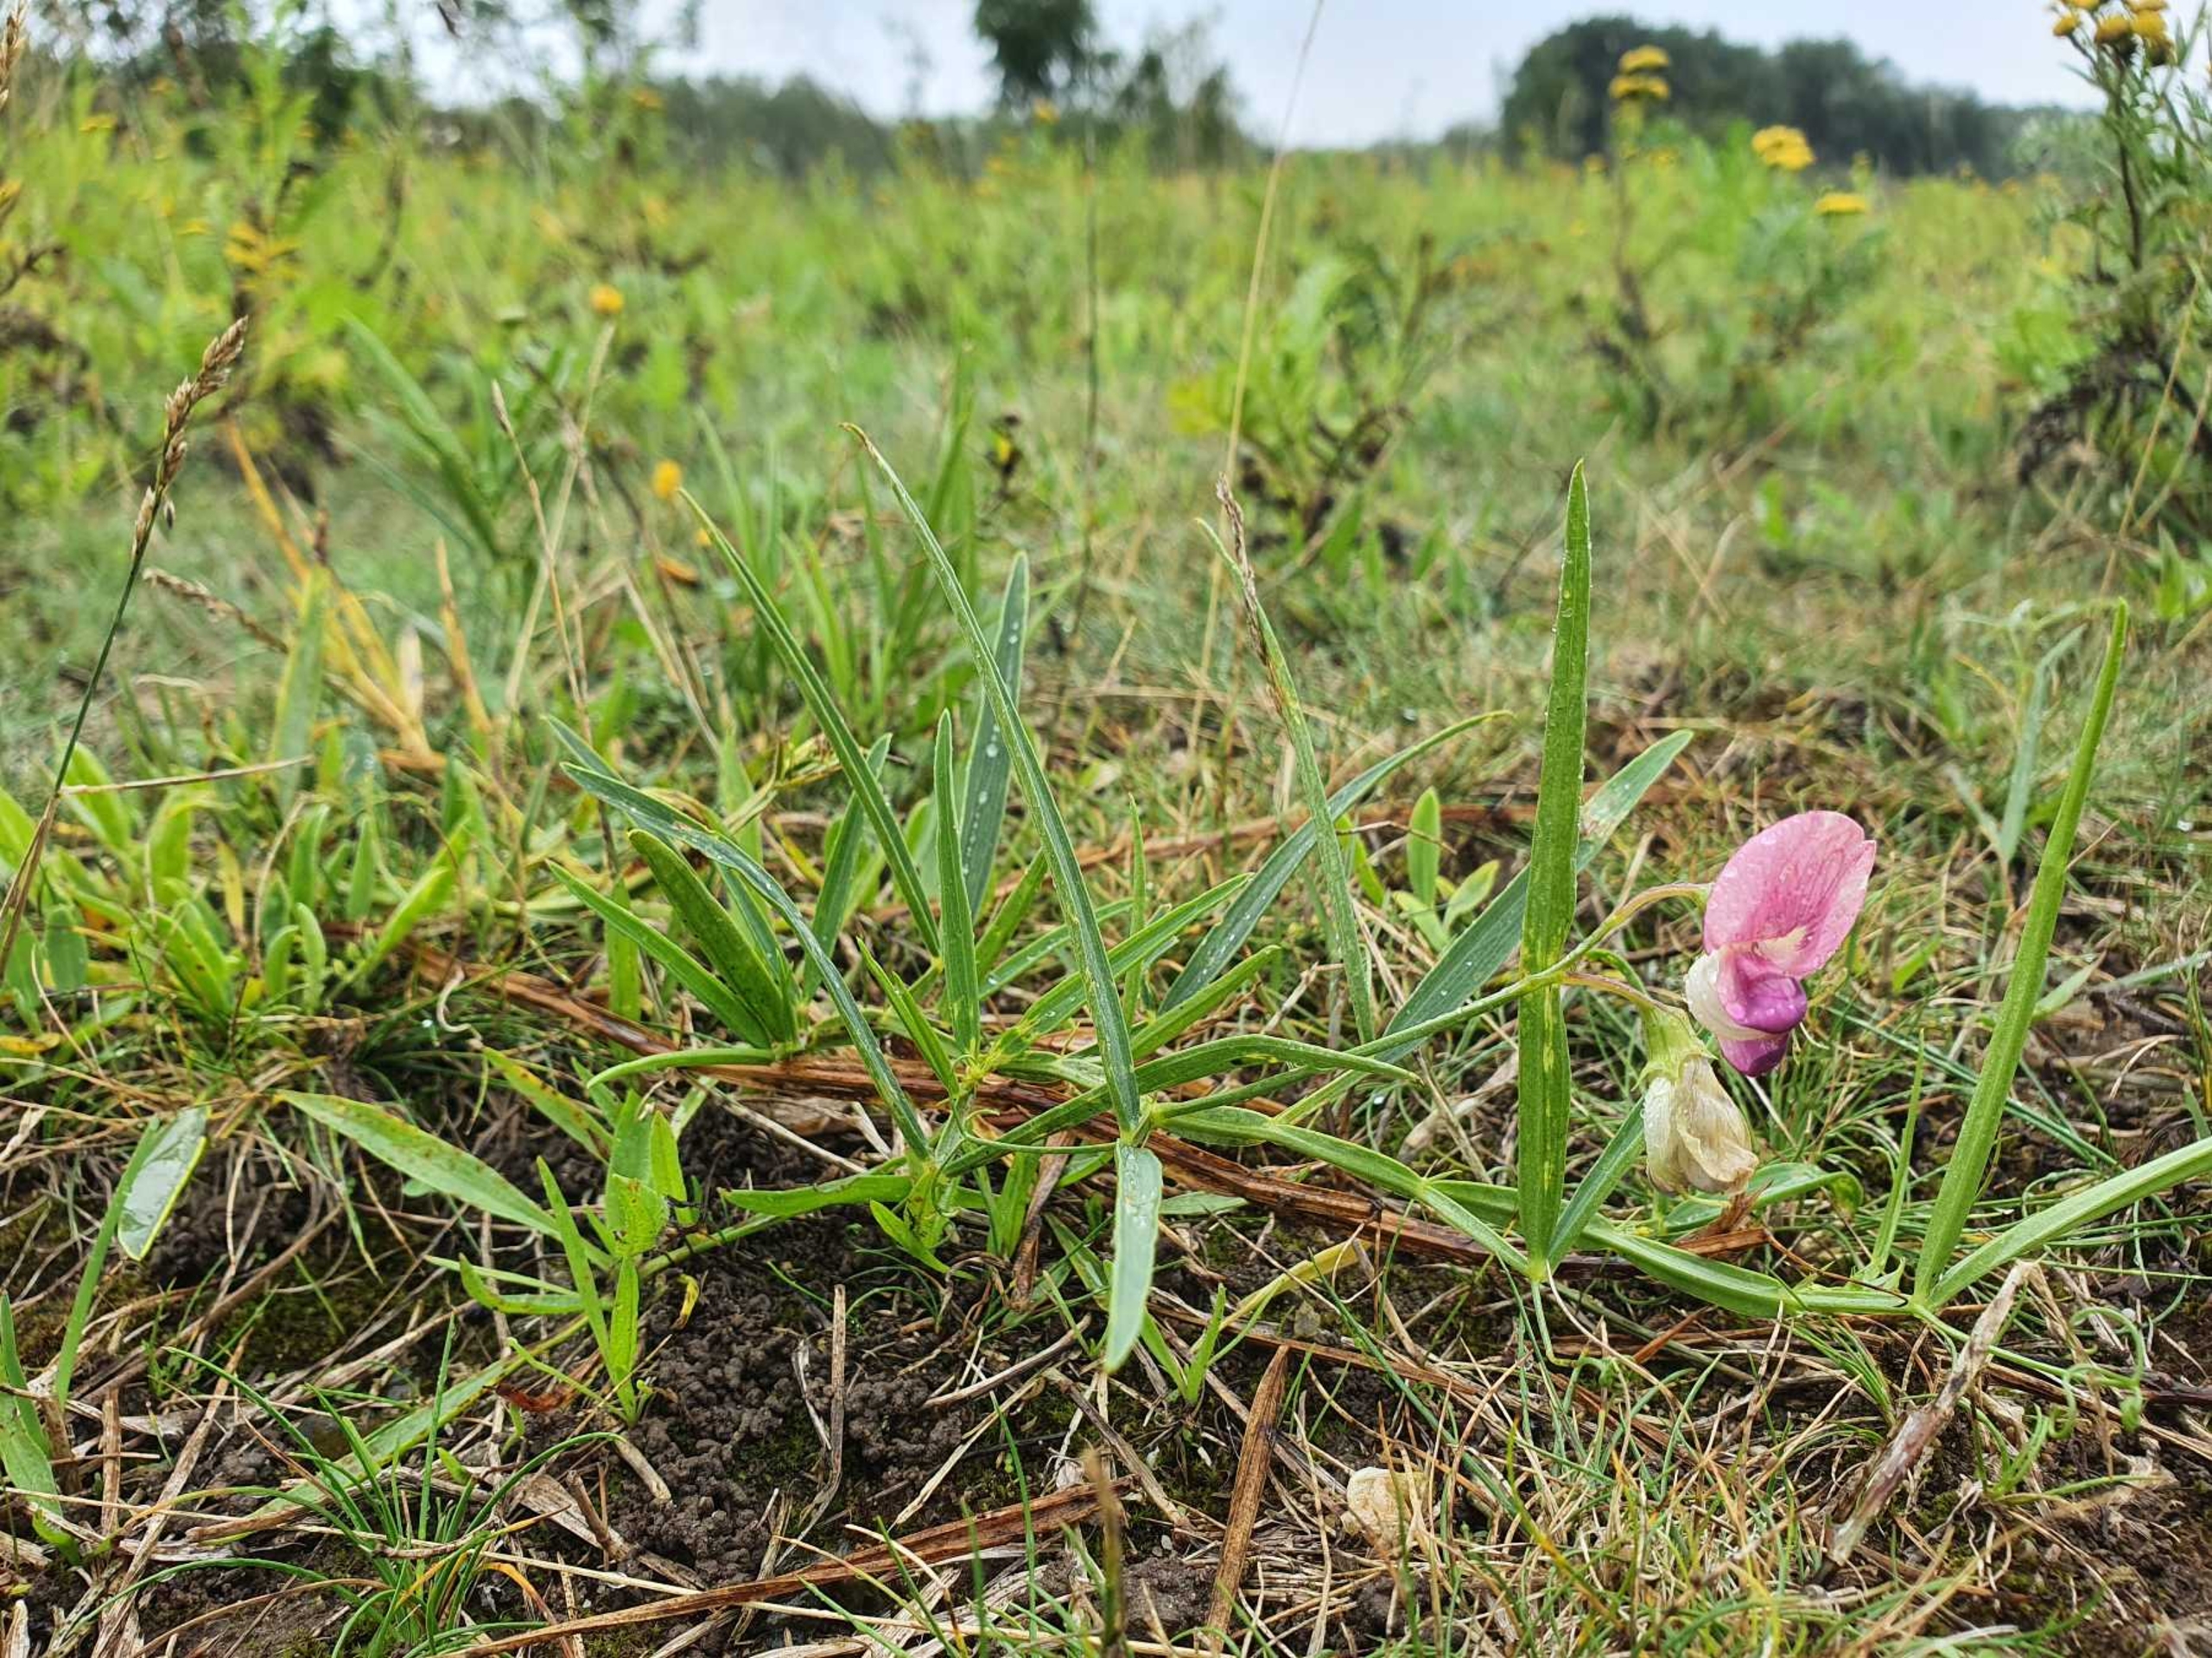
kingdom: Plantae
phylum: Tracheophyta
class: Magnoliopsida
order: Fabales
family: Fabaceae
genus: Lathyrus
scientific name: Lathyrus sylvestris
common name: Skov-fladbælg
